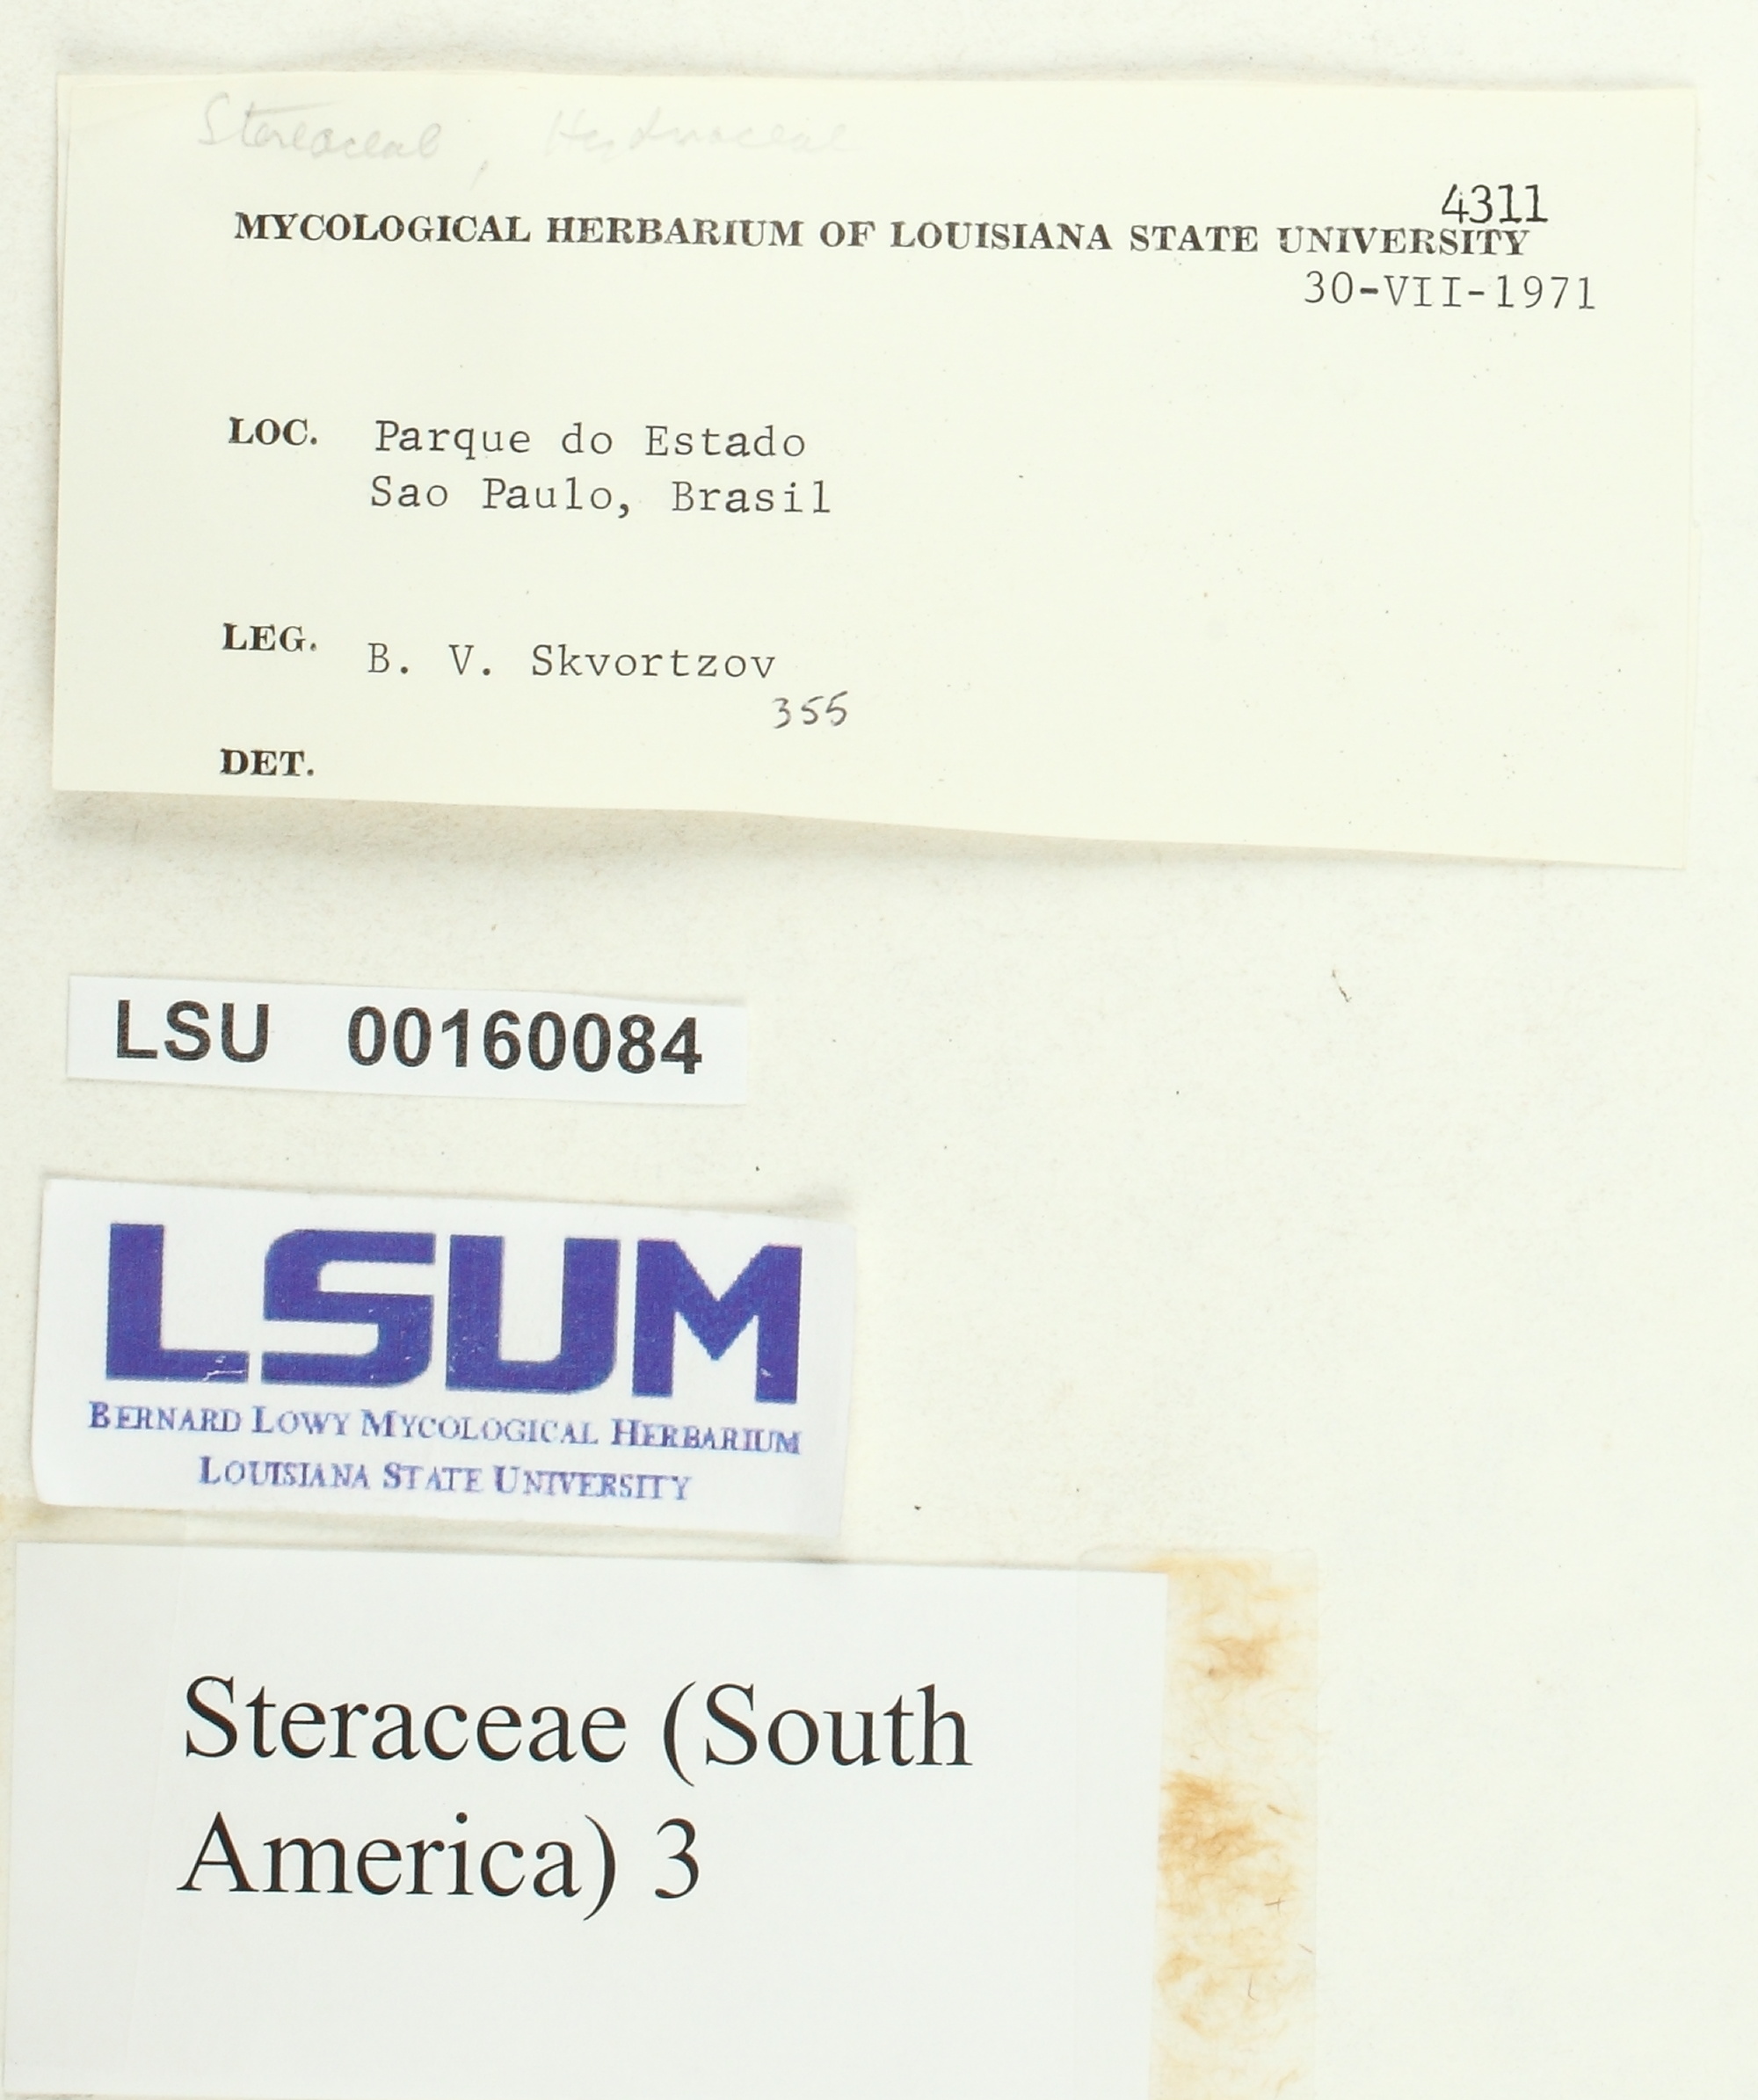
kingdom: Fungi
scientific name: Fungi
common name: Fungi
